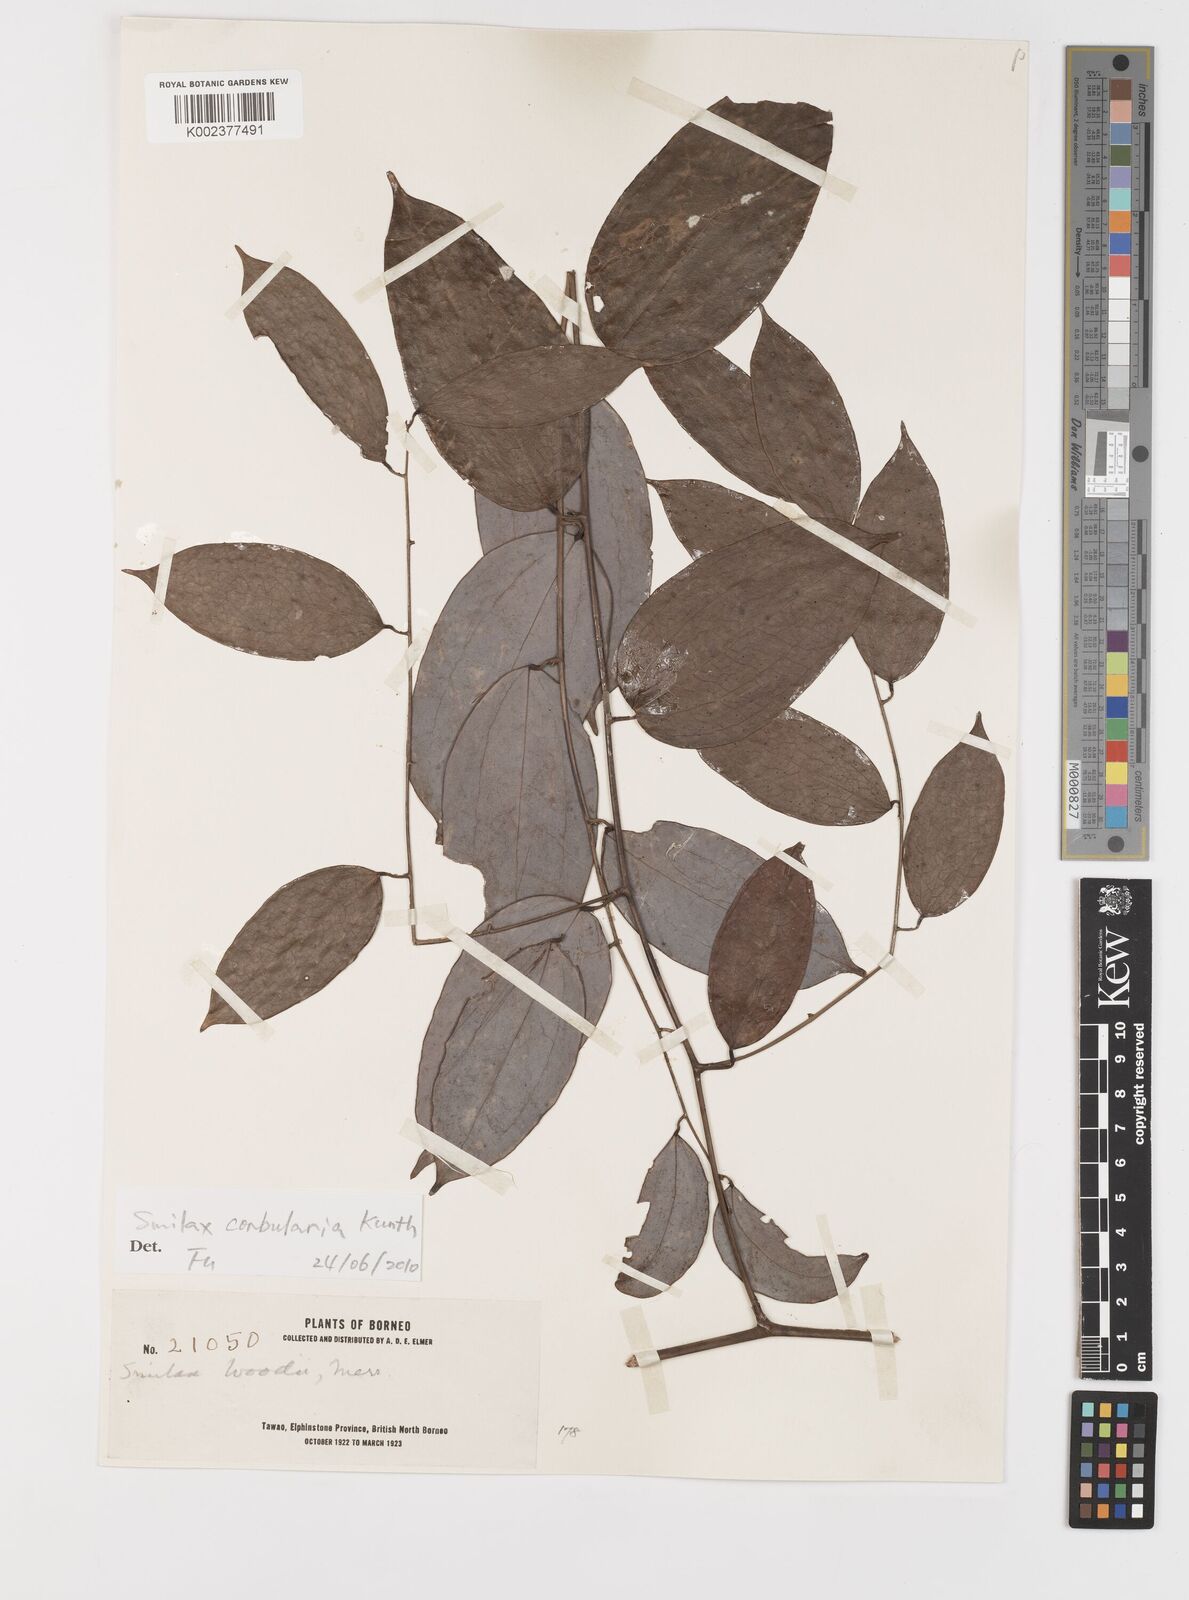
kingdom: Plantae
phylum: Tracheophyta
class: Liliopsida
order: Liliales
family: Smilacaceae
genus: Smilax
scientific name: Smilax corbularia
